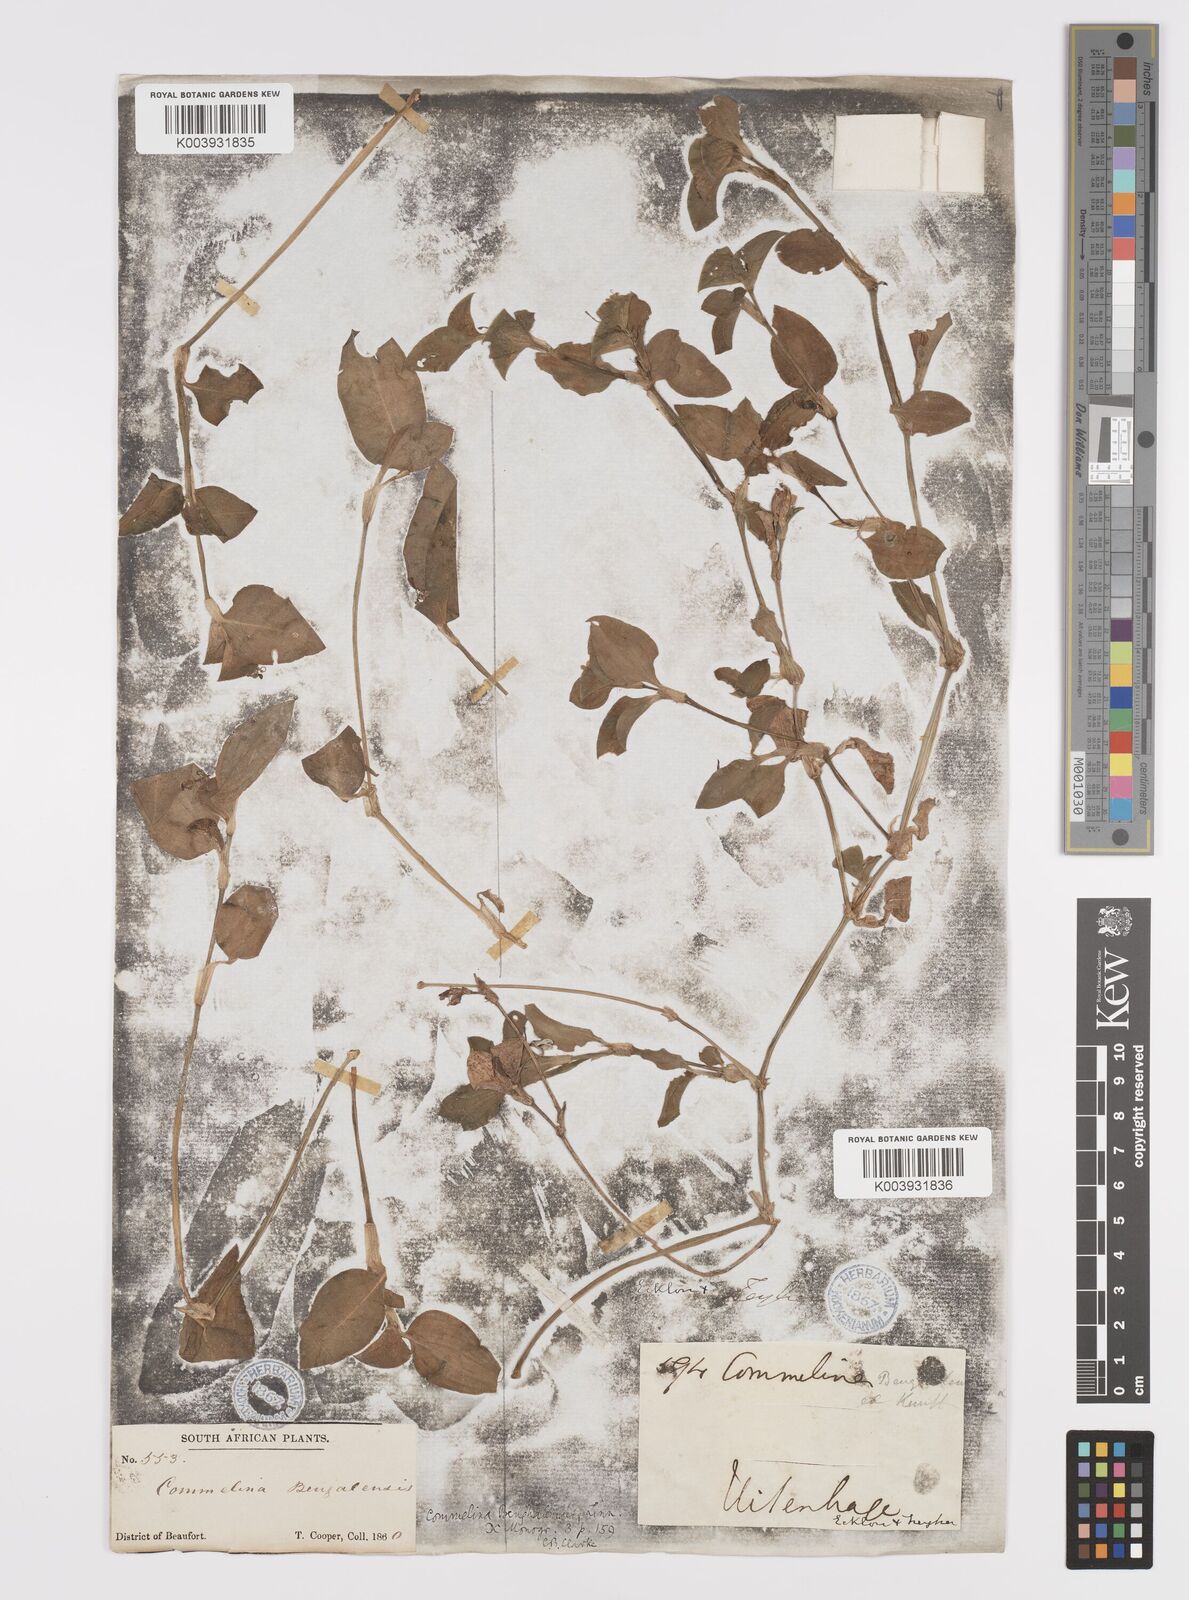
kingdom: Plantae
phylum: Tracheophyta
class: Liliopsida
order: Commelinales
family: Commelinaceae
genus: Commelina
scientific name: Commelina benghalensis
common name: Jio
